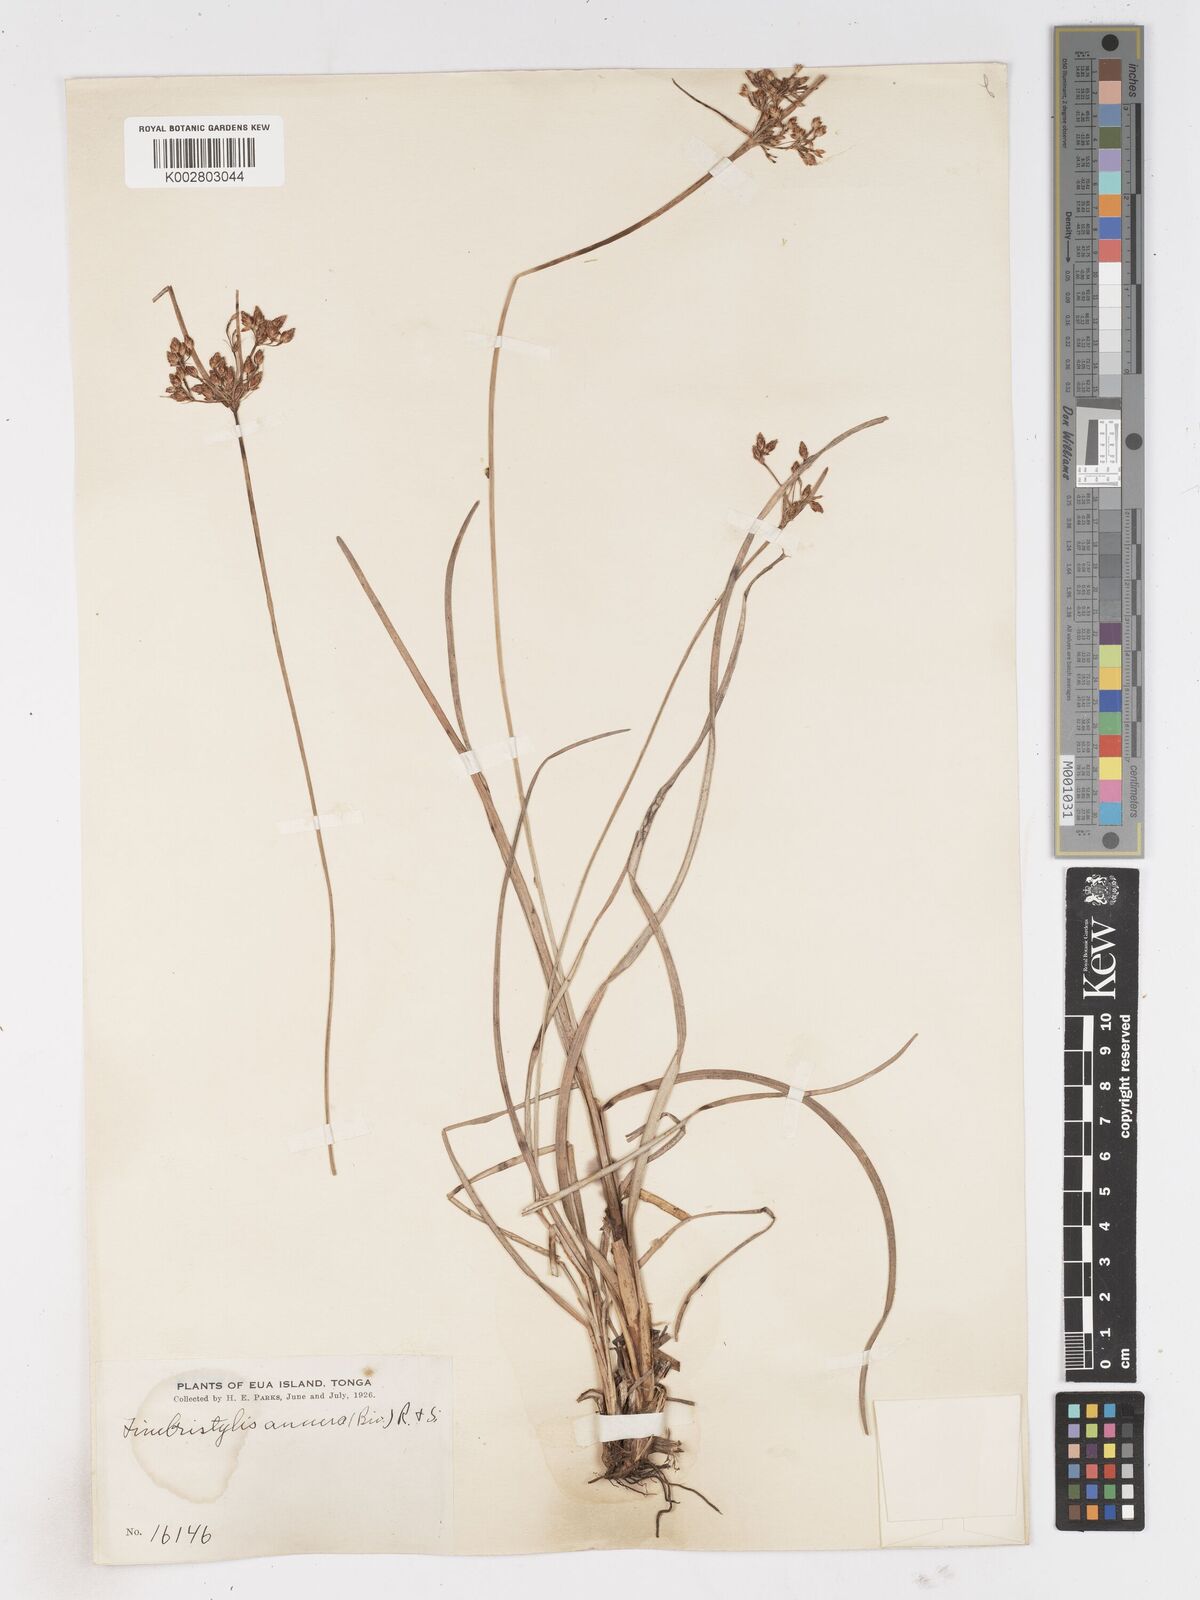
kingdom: Plantae
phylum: Tracheophyta
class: Liliopsida
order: Poales
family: Cyperaceae
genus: Fimbristylis
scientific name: Fimbristylis dichotoma
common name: Forked fimbry
